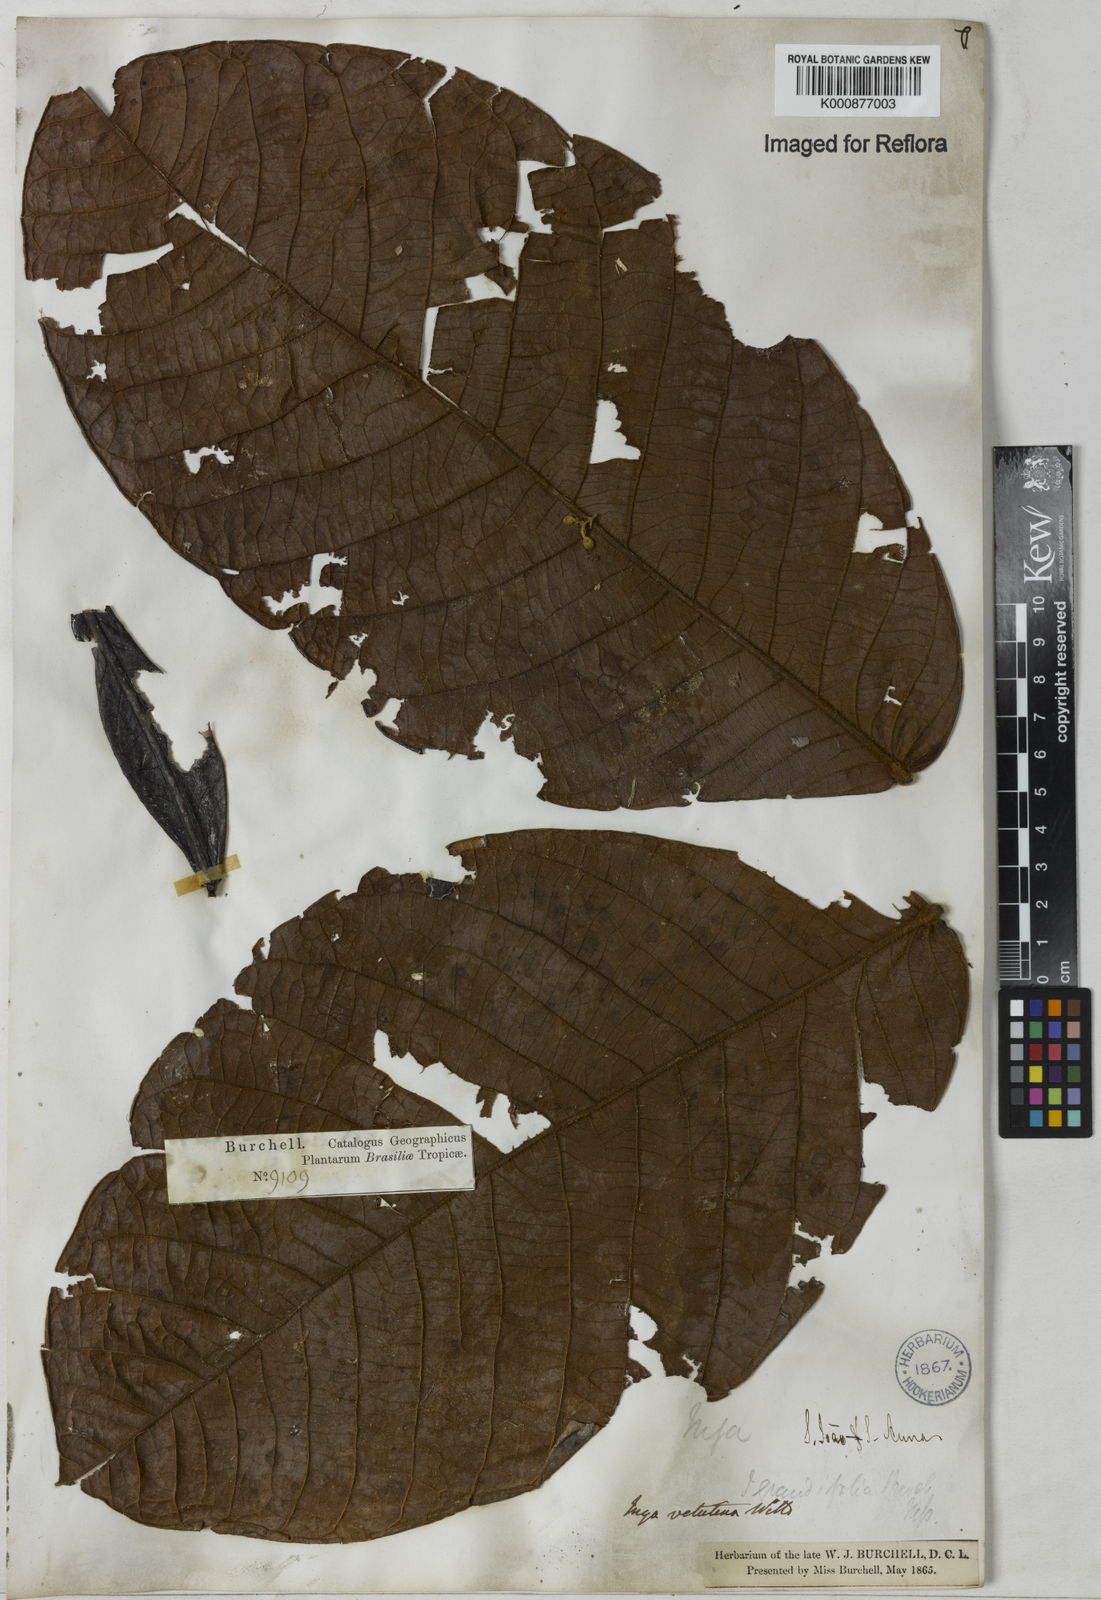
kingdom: Plantae
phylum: Tracheophyta
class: Magnoliopsida
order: Fabales
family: Fabaceae
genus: Inga
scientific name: Inga velutina
